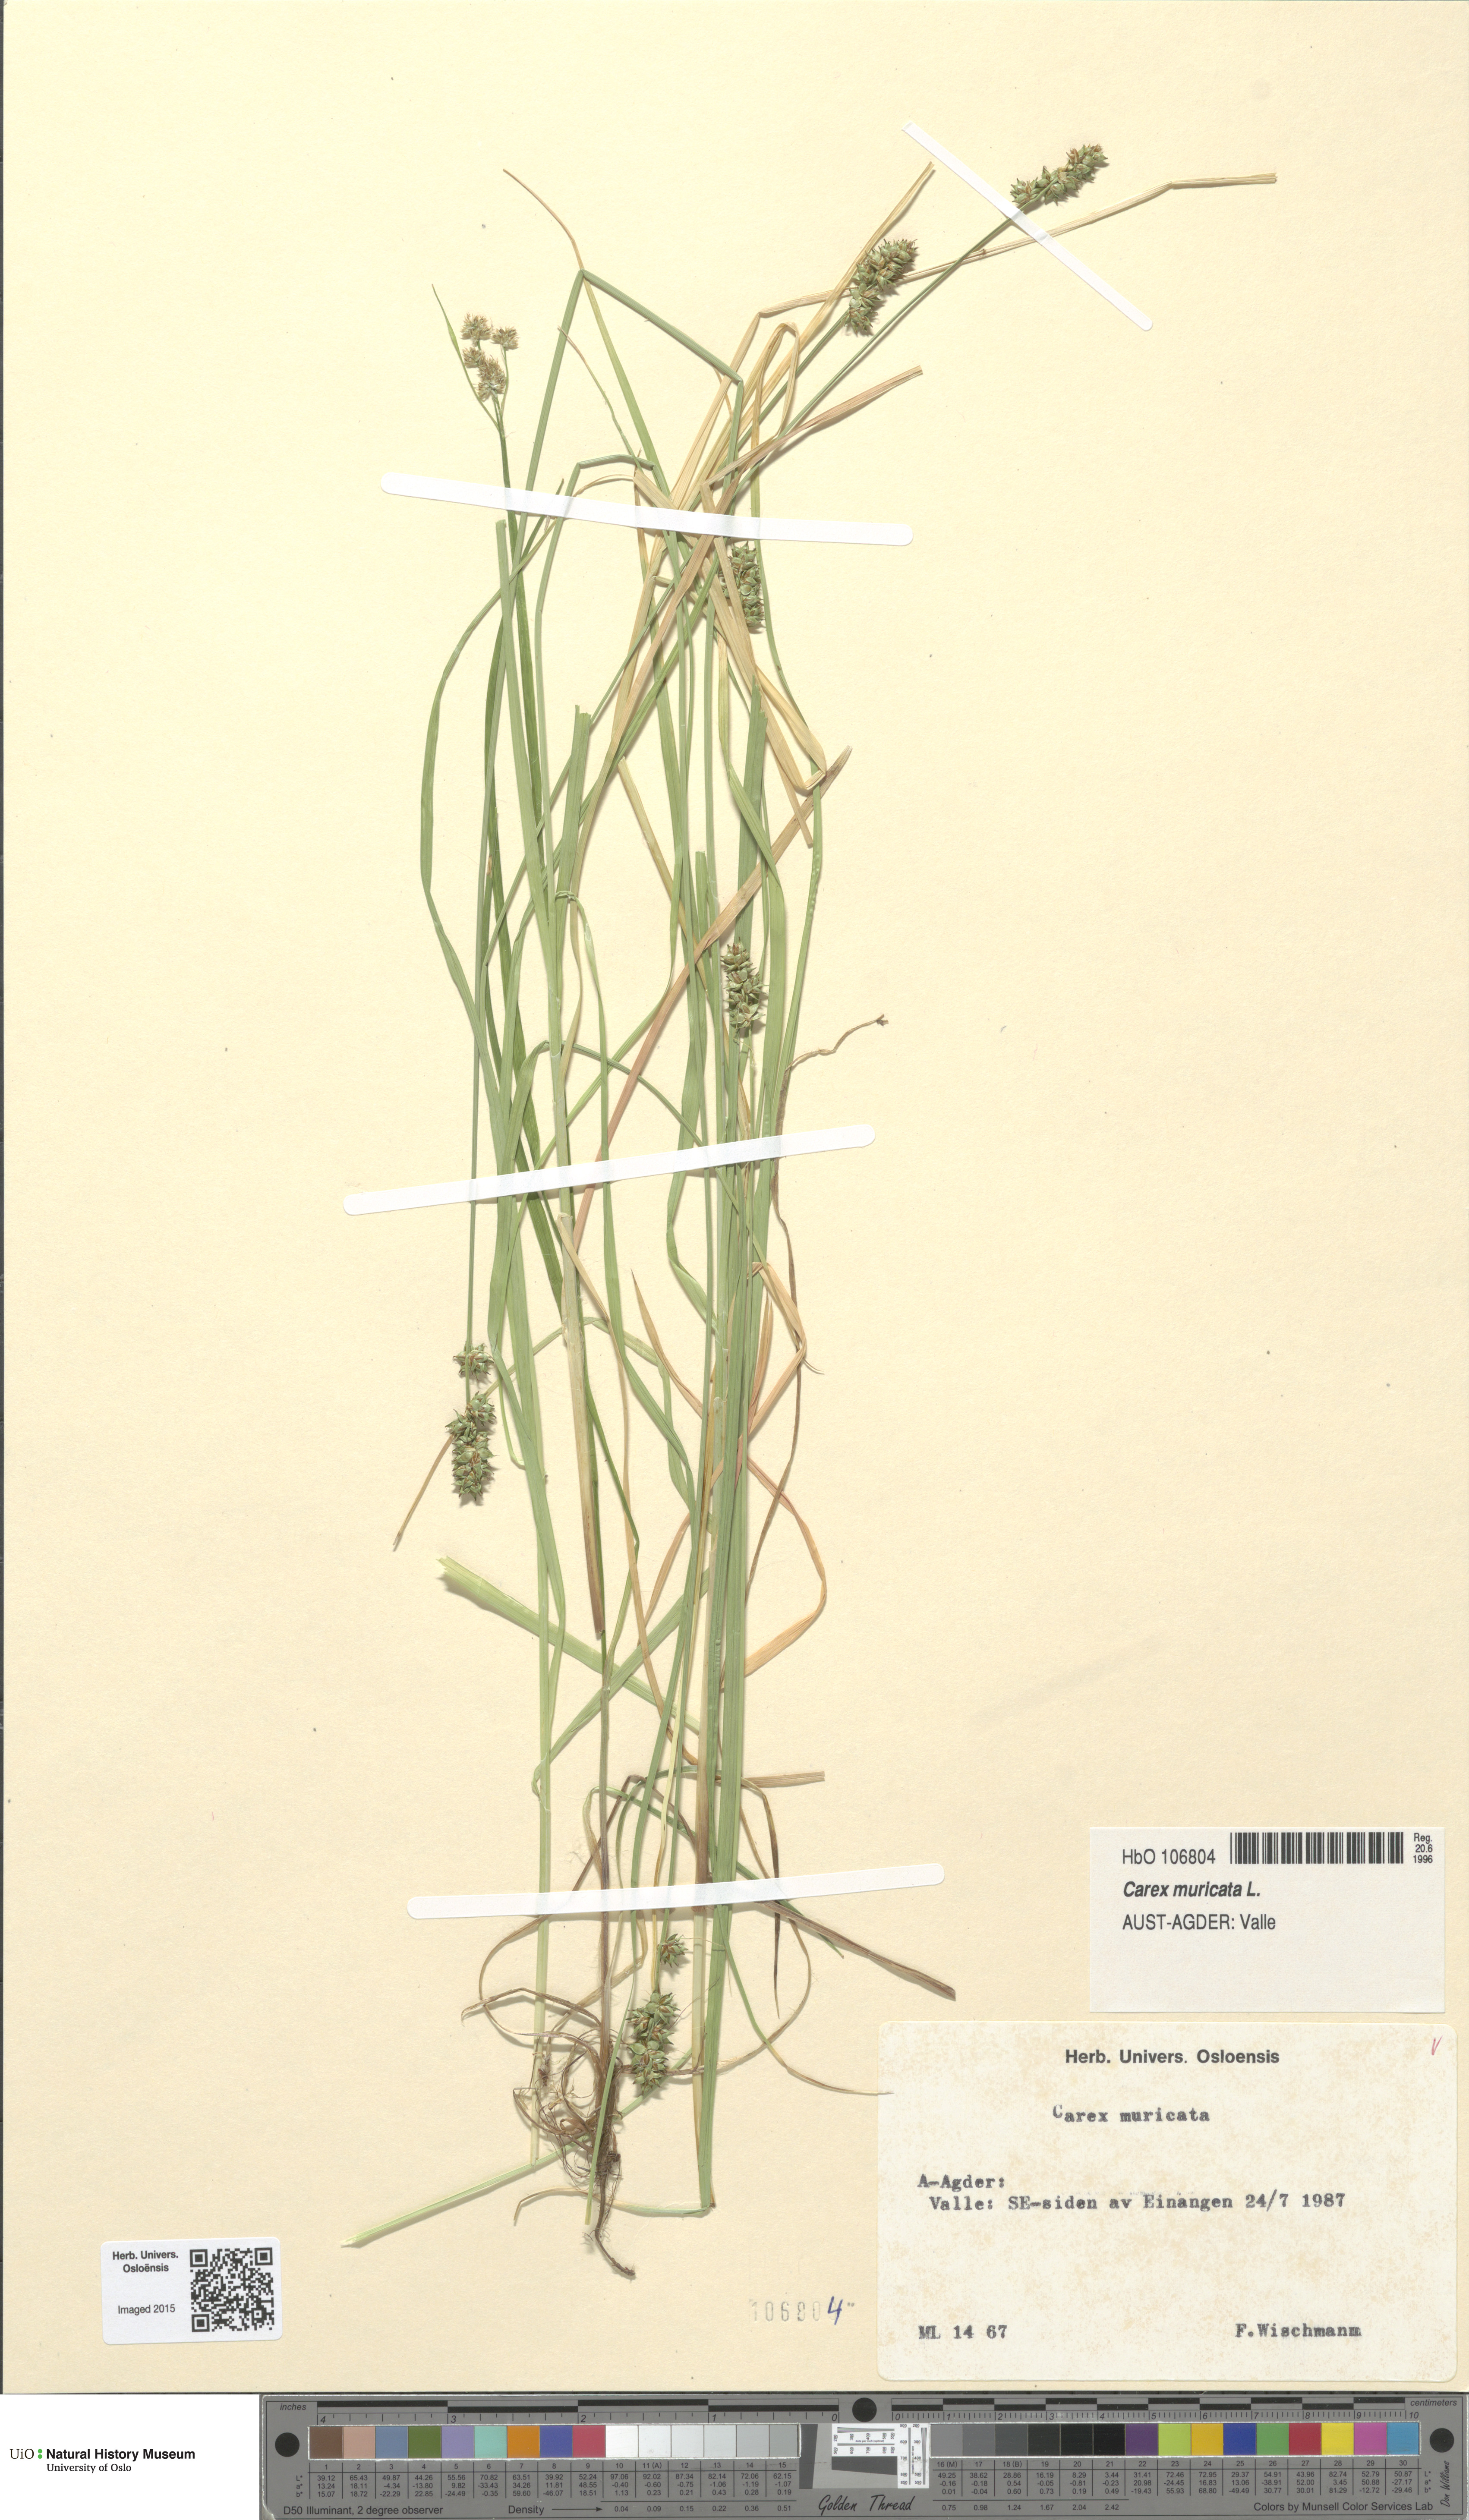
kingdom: Plantae
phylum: Tracheophyta
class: Liliopsida
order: Poales
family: Cyperaceae
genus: Carex
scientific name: Carex muricata
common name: Rough sedge
